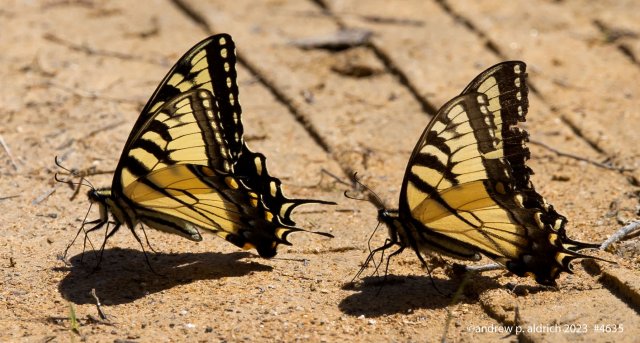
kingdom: Animalia
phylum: Arthropoda
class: Insecta
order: Lepidoptera
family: Papilionidae
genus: Pterourus
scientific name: Pterourus glaucus
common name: Eastern Tiger Swallowtail
